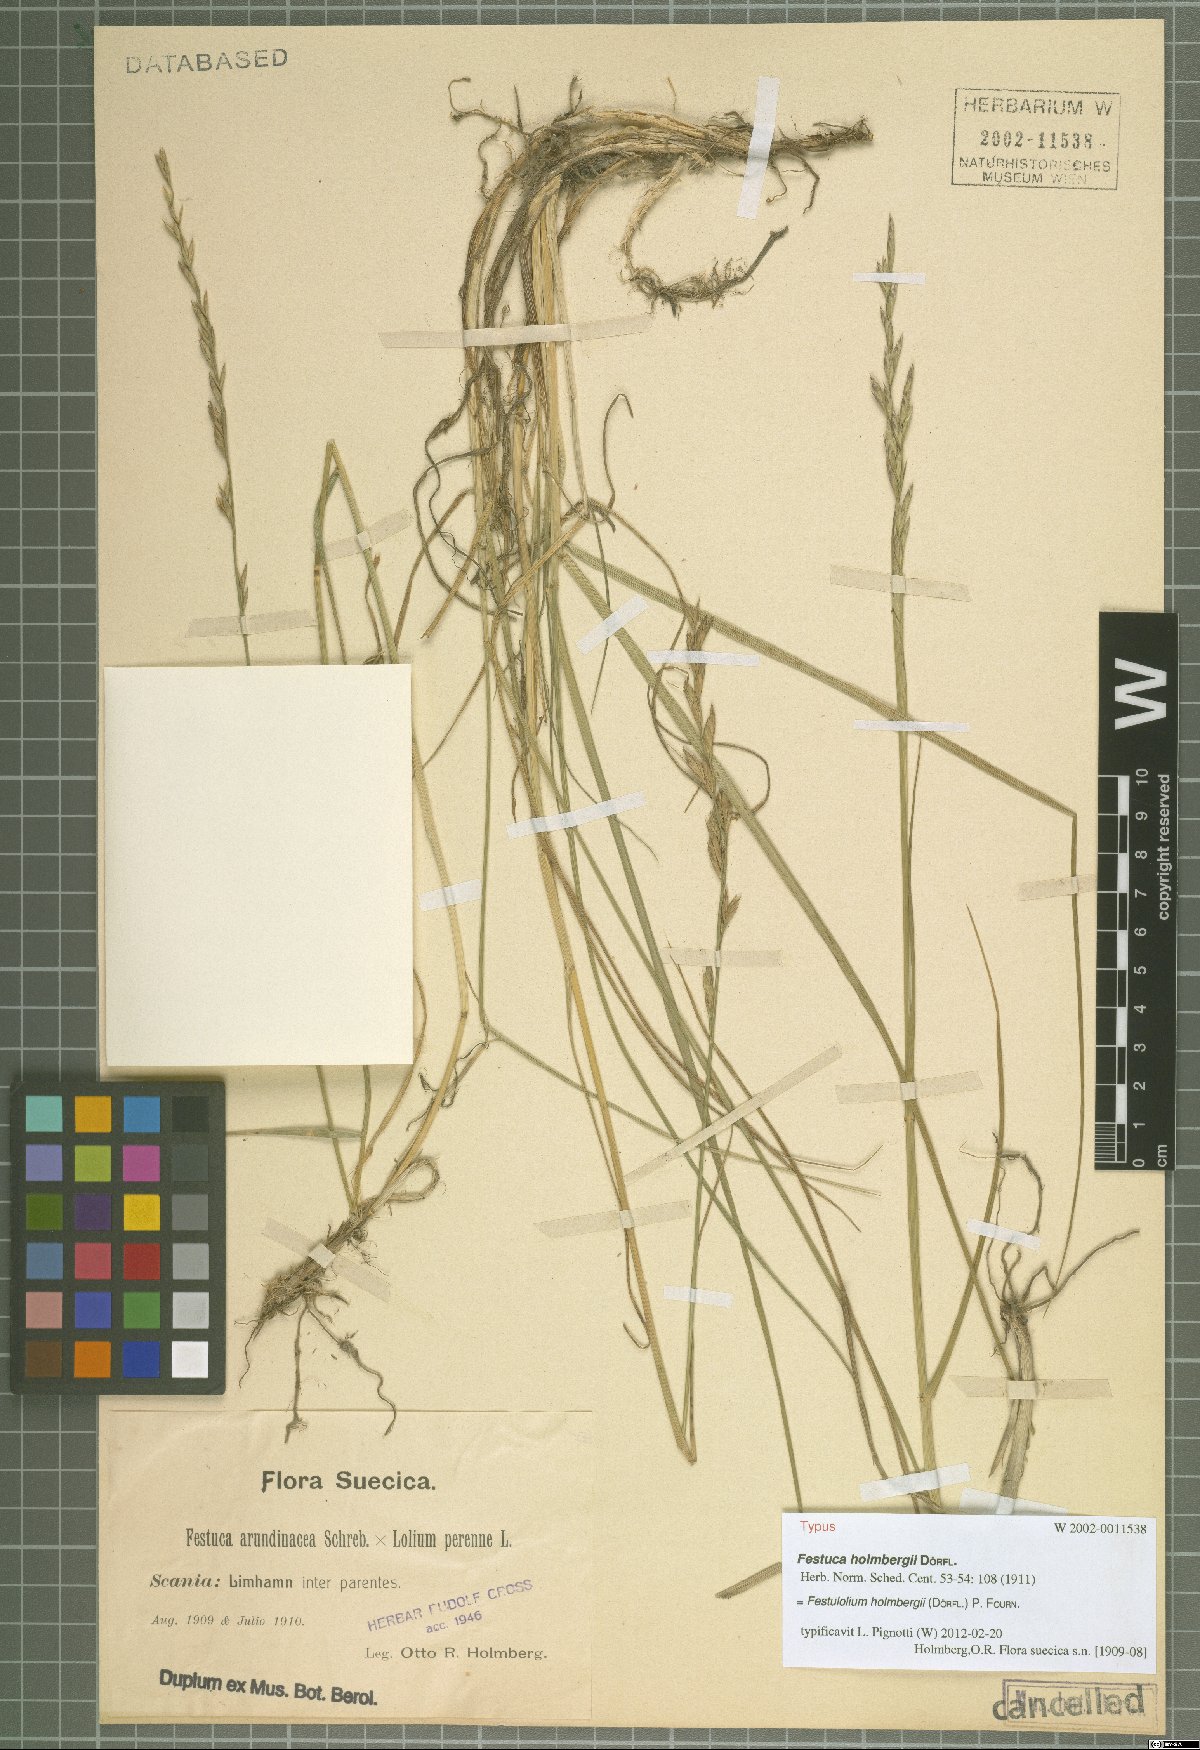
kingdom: Plantae
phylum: Tracheophyta
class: Liliopsida
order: Poales
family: Poaceae
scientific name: Poaceae
